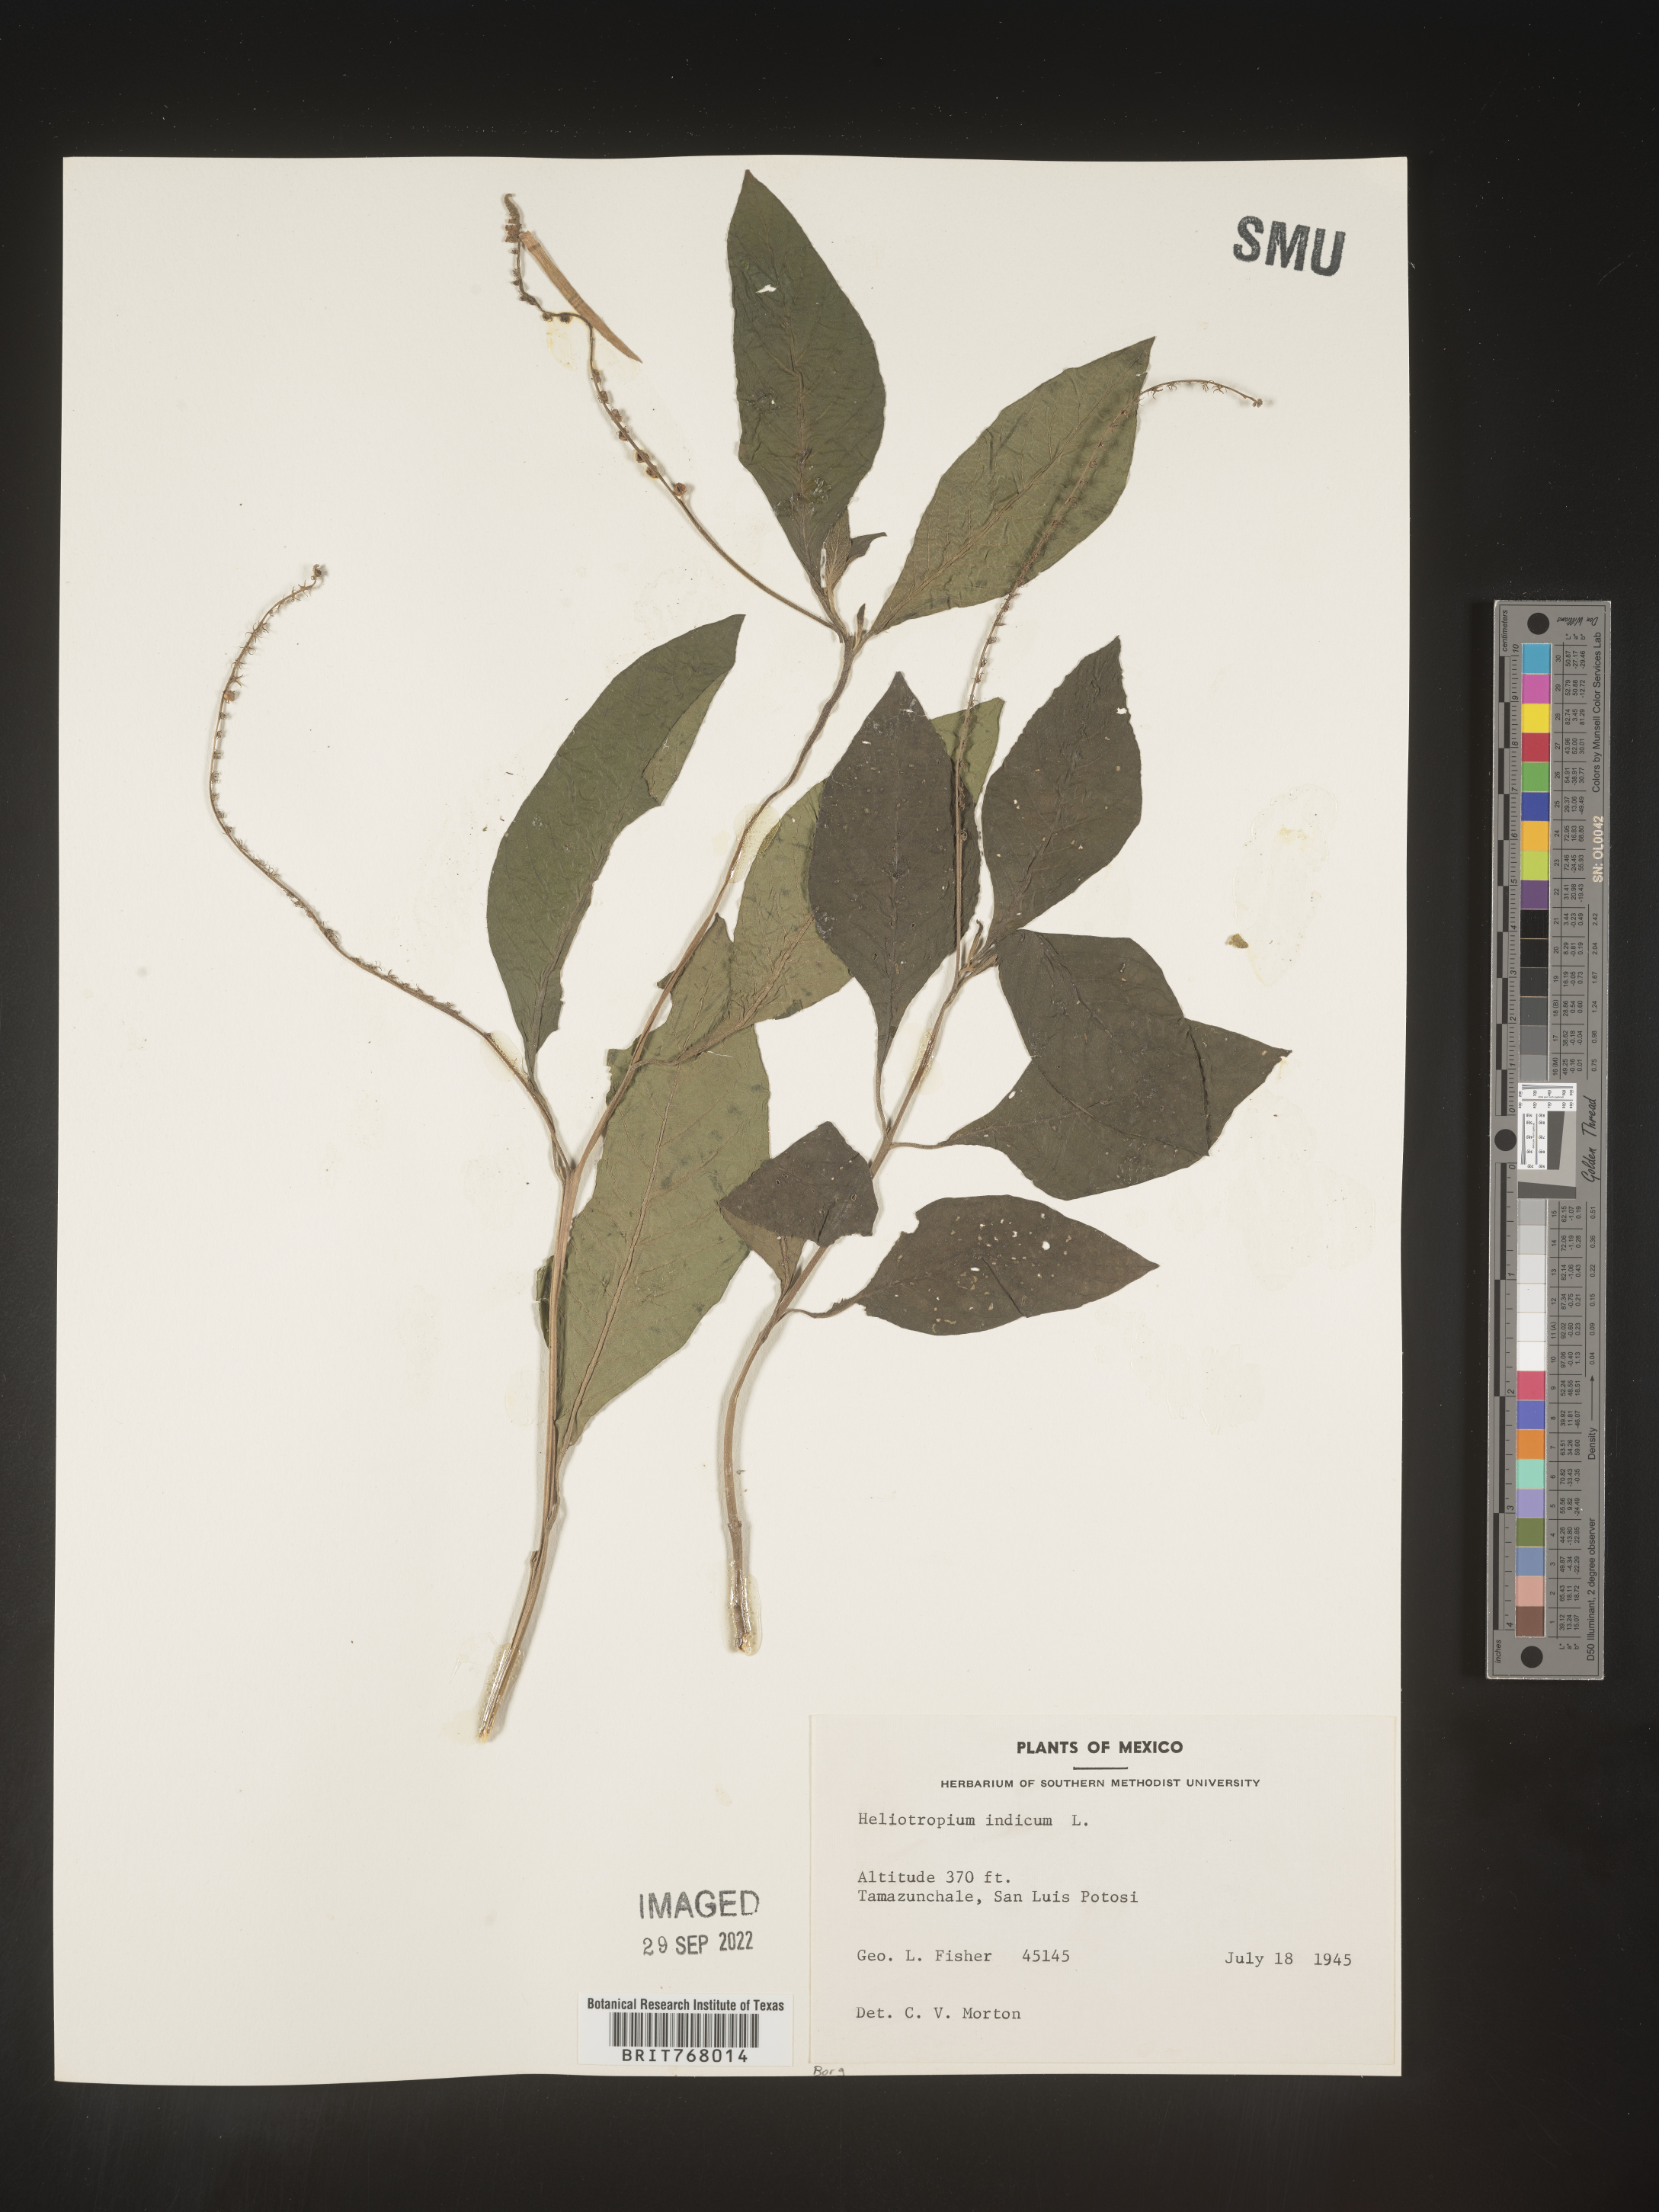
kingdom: Plantae
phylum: Tracheophyta
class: Magnoliopsida
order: Boraginales
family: Heliotropiaceae
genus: Heliotropium
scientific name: Heliotropium
